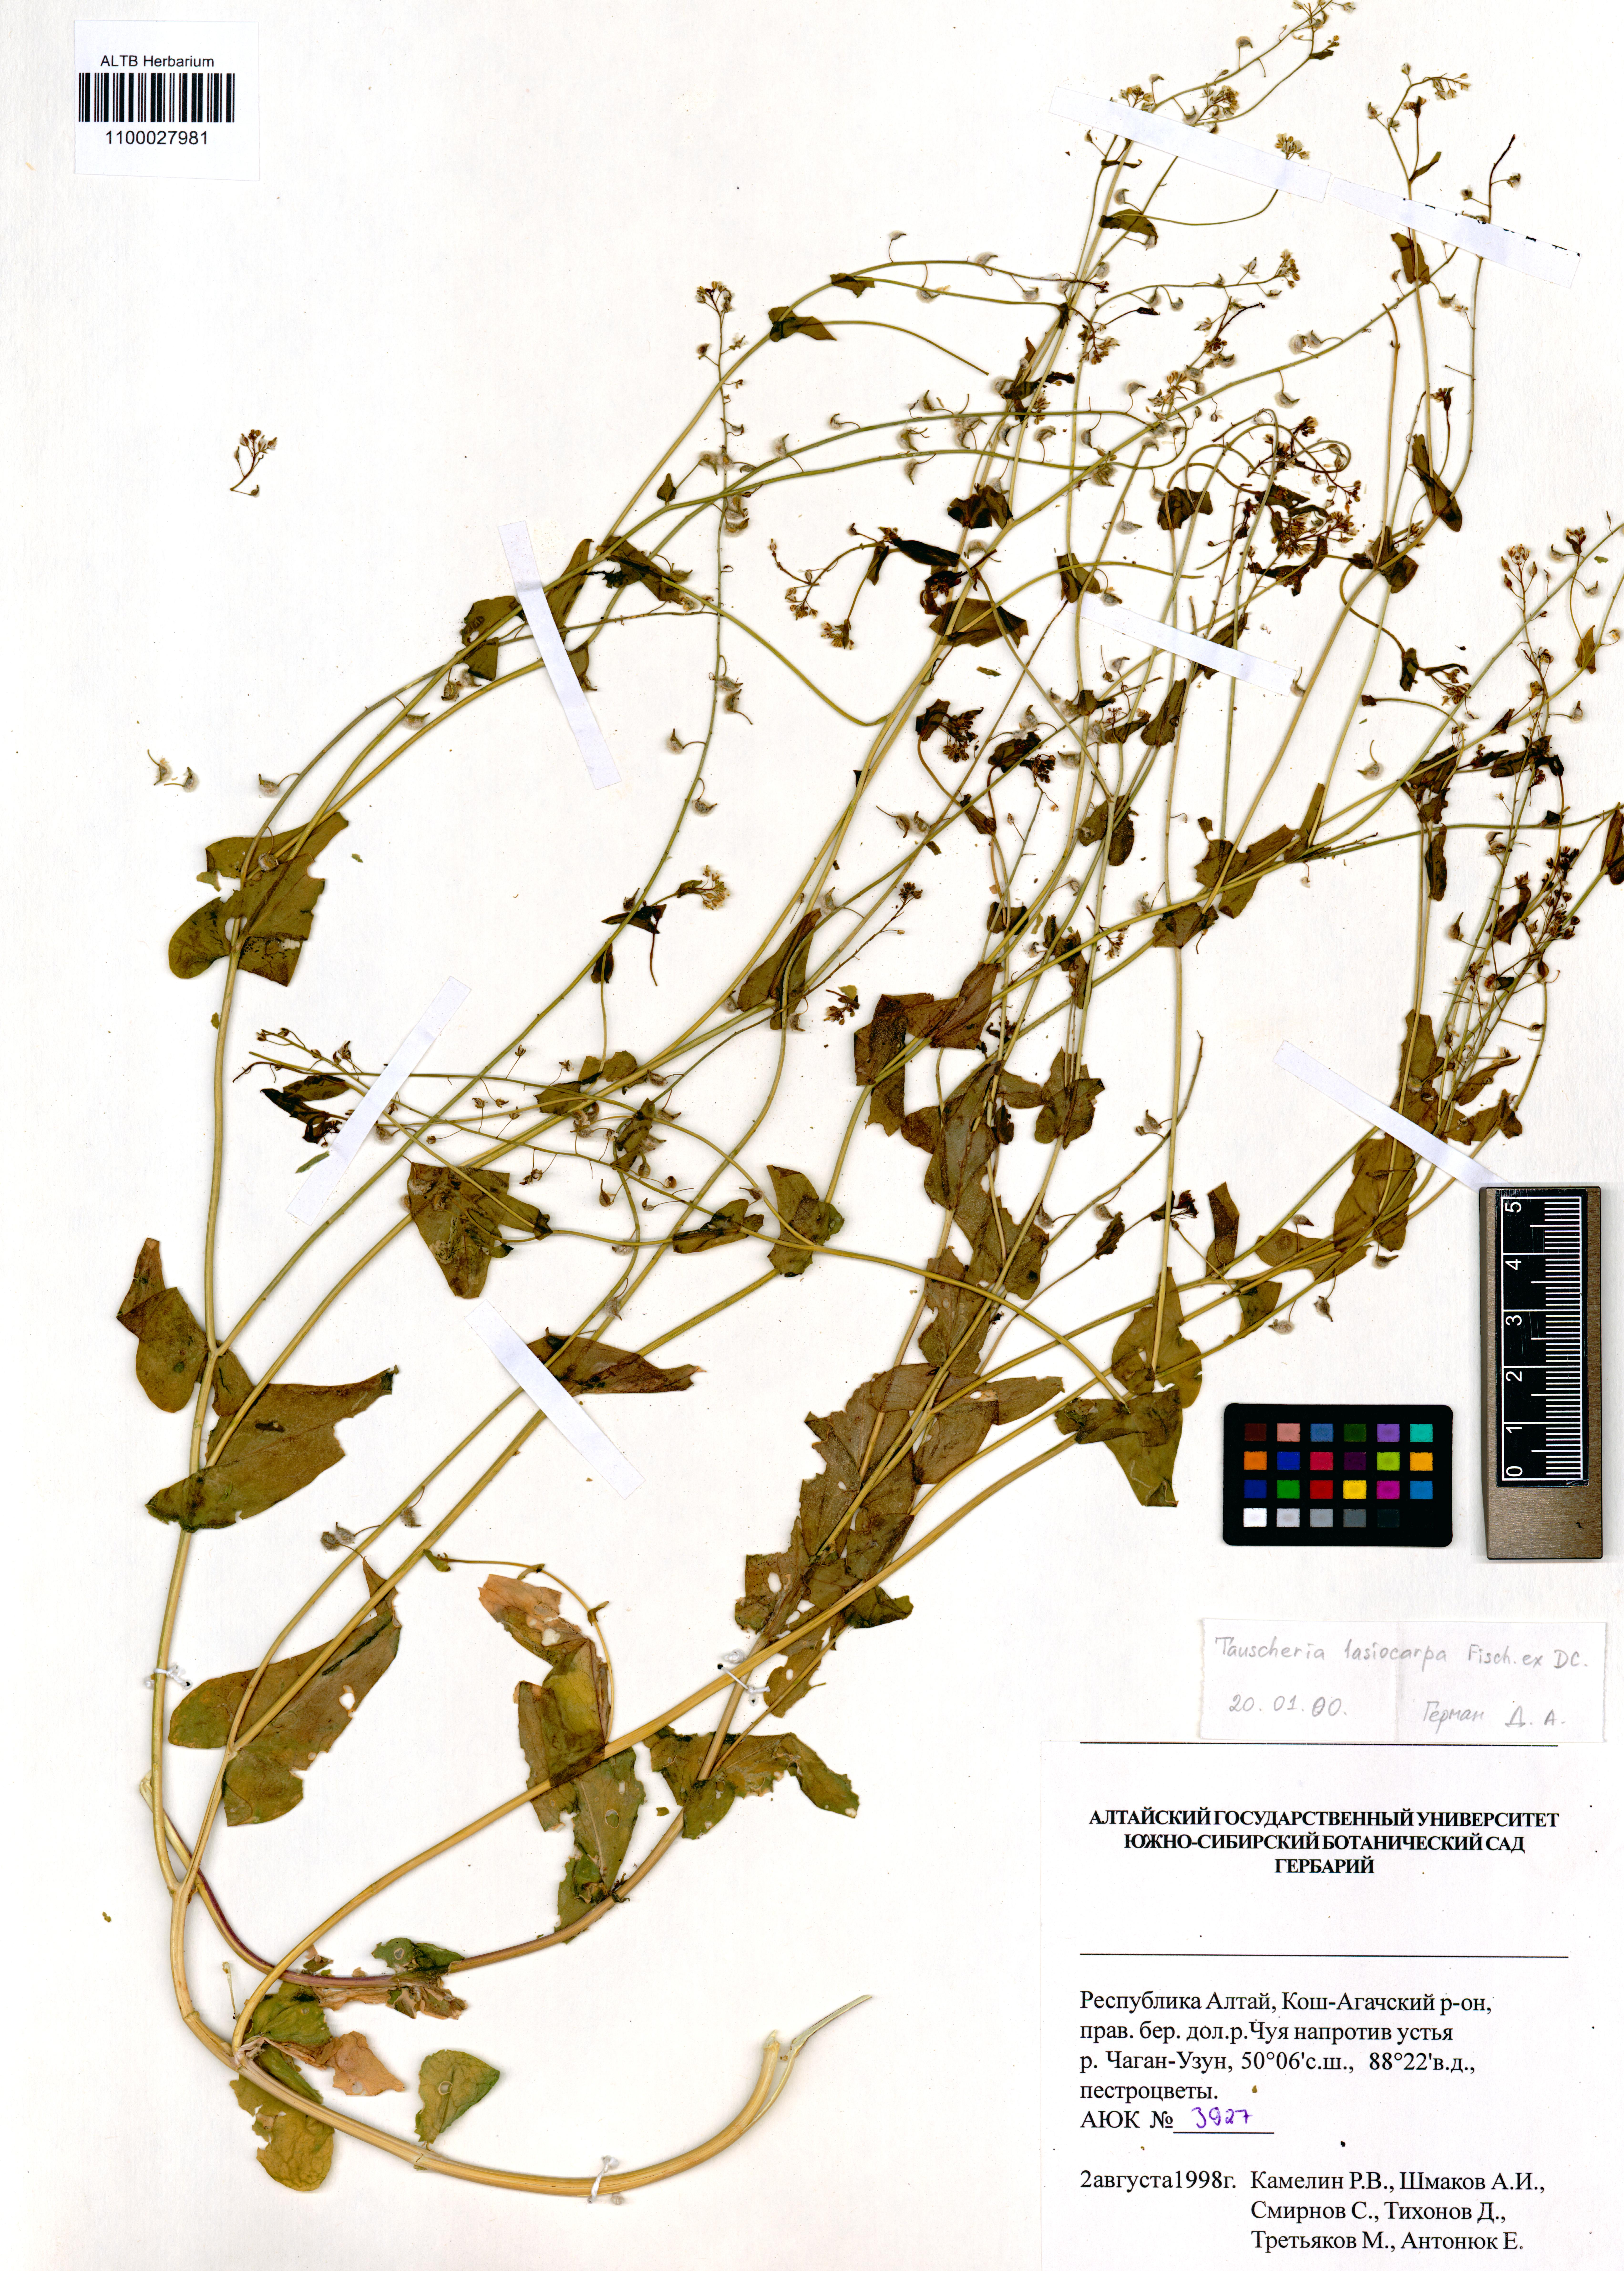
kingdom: Plantae
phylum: Tracheophyta
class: Magnoliopsida
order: Brassicales
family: Brassicaceae
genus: Tauscheria
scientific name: Tauscheria lasiocarpa
